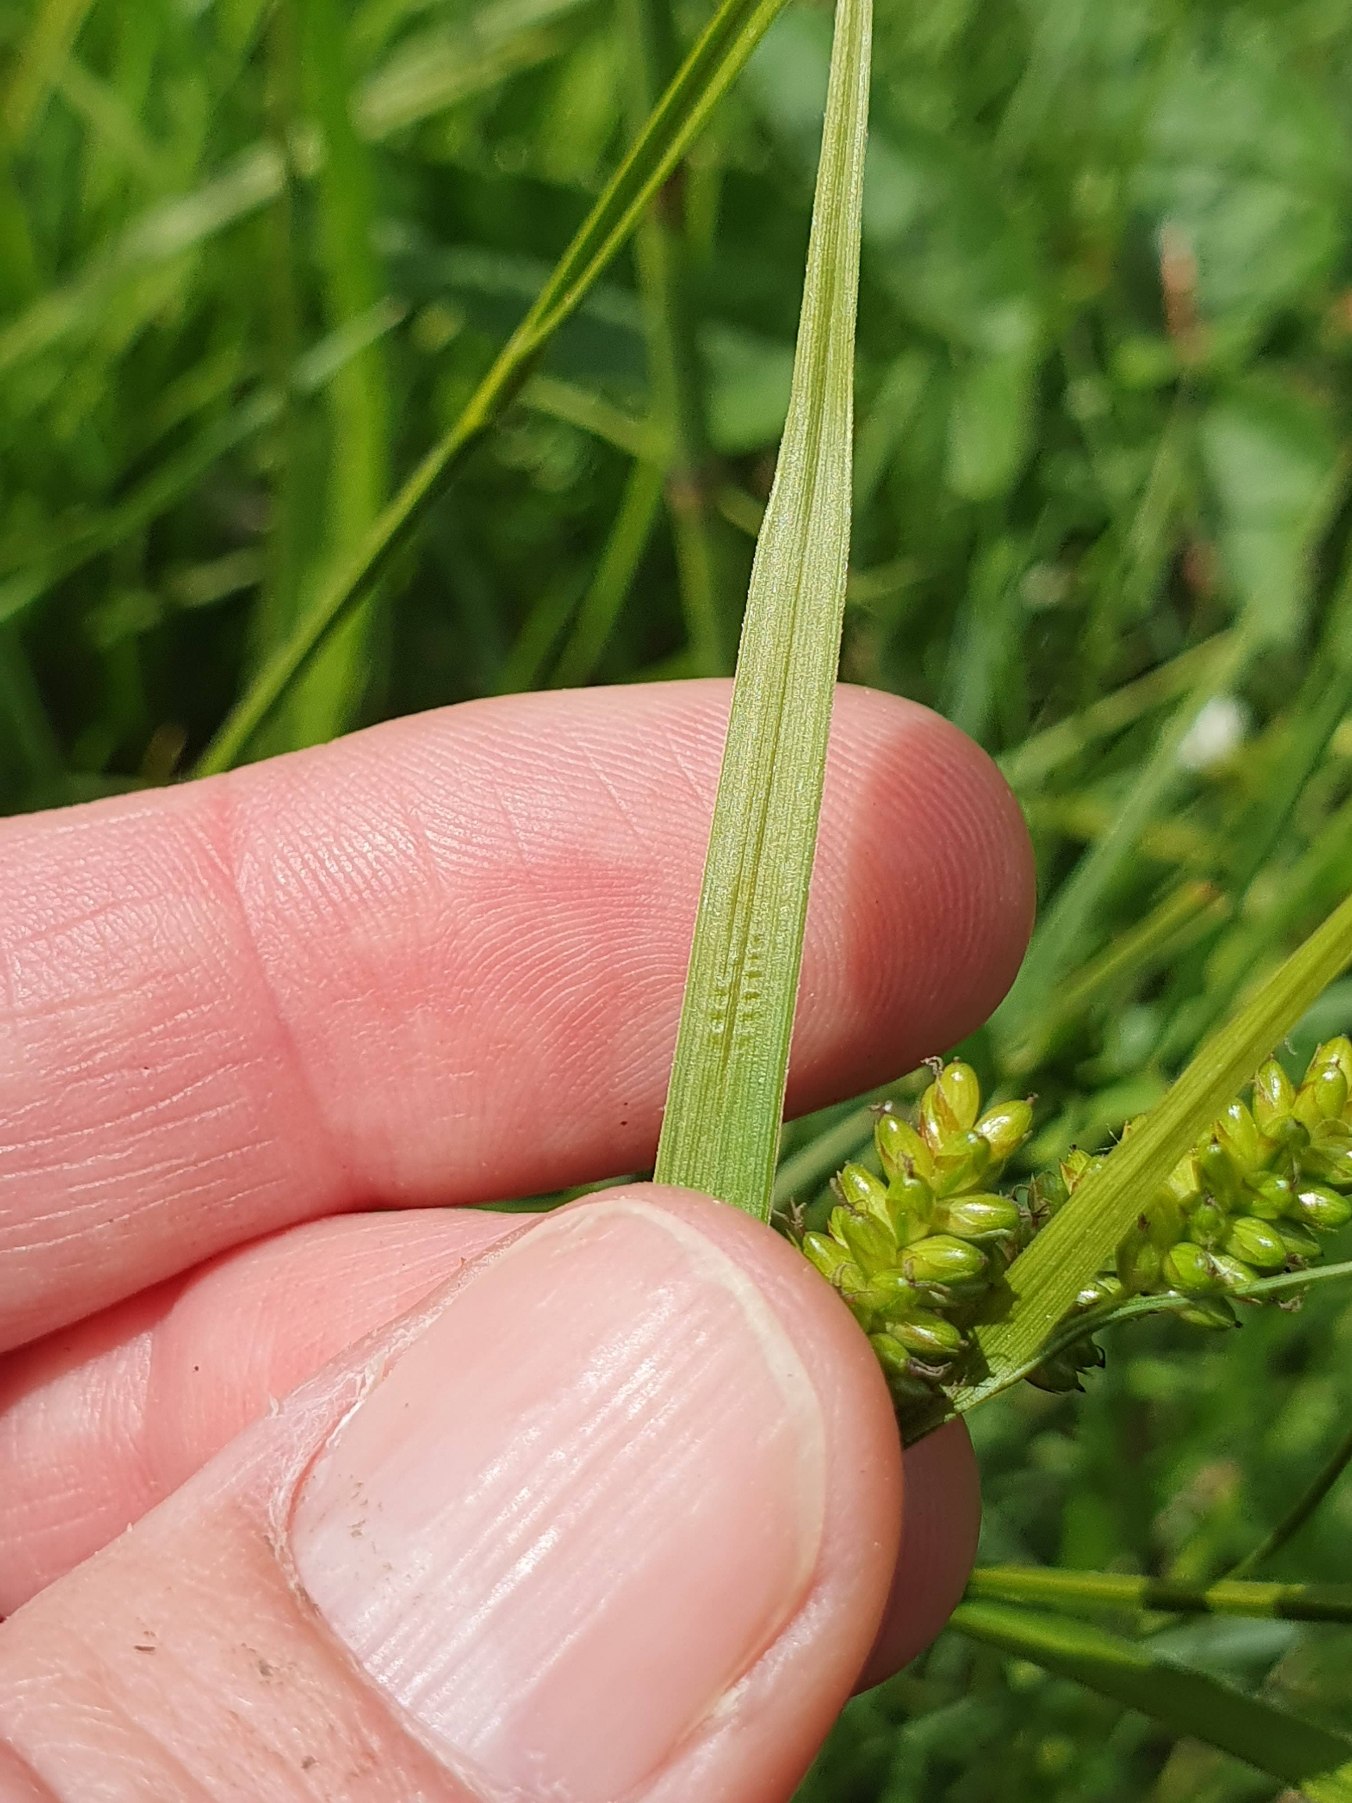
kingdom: Plantae
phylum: Tracheophyta
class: Liliopsida
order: Poales
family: Cyperaceae
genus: Carex
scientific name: Carex pallescens
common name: Bleg star
